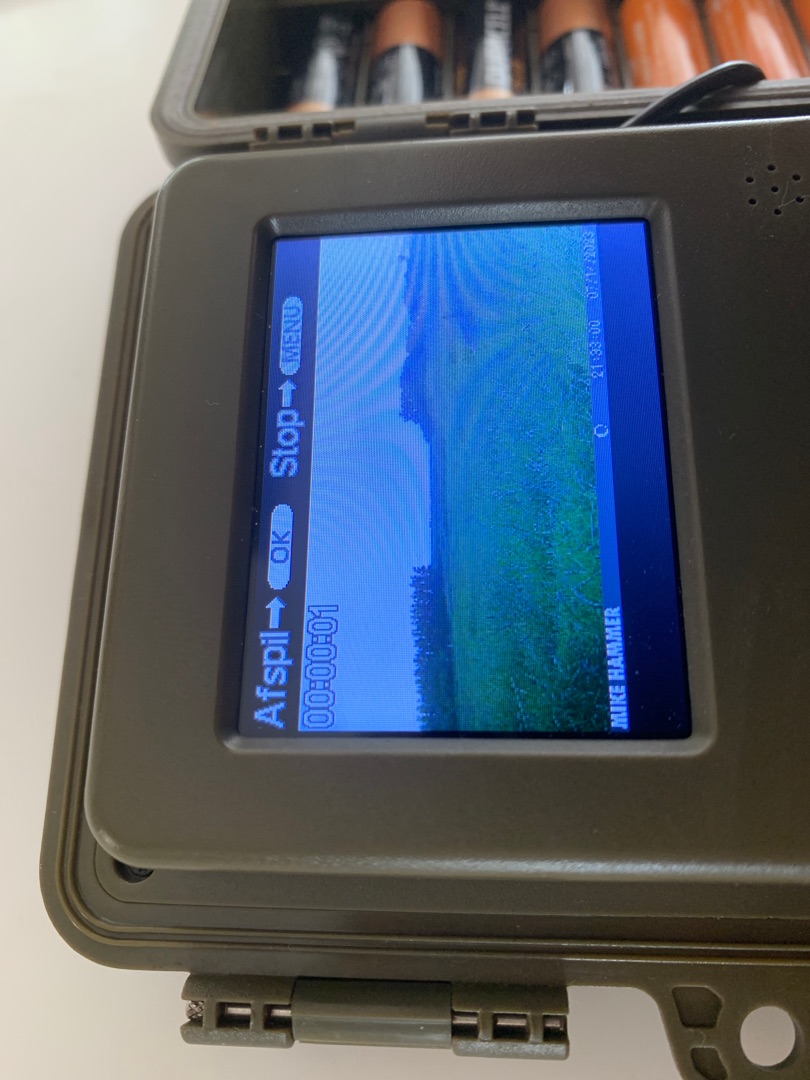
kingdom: Animalia
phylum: Chordata
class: Mammalia
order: Lagomorpha
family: Leporidae
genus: Lepus
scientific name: Lepus europaeus
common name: Hare
